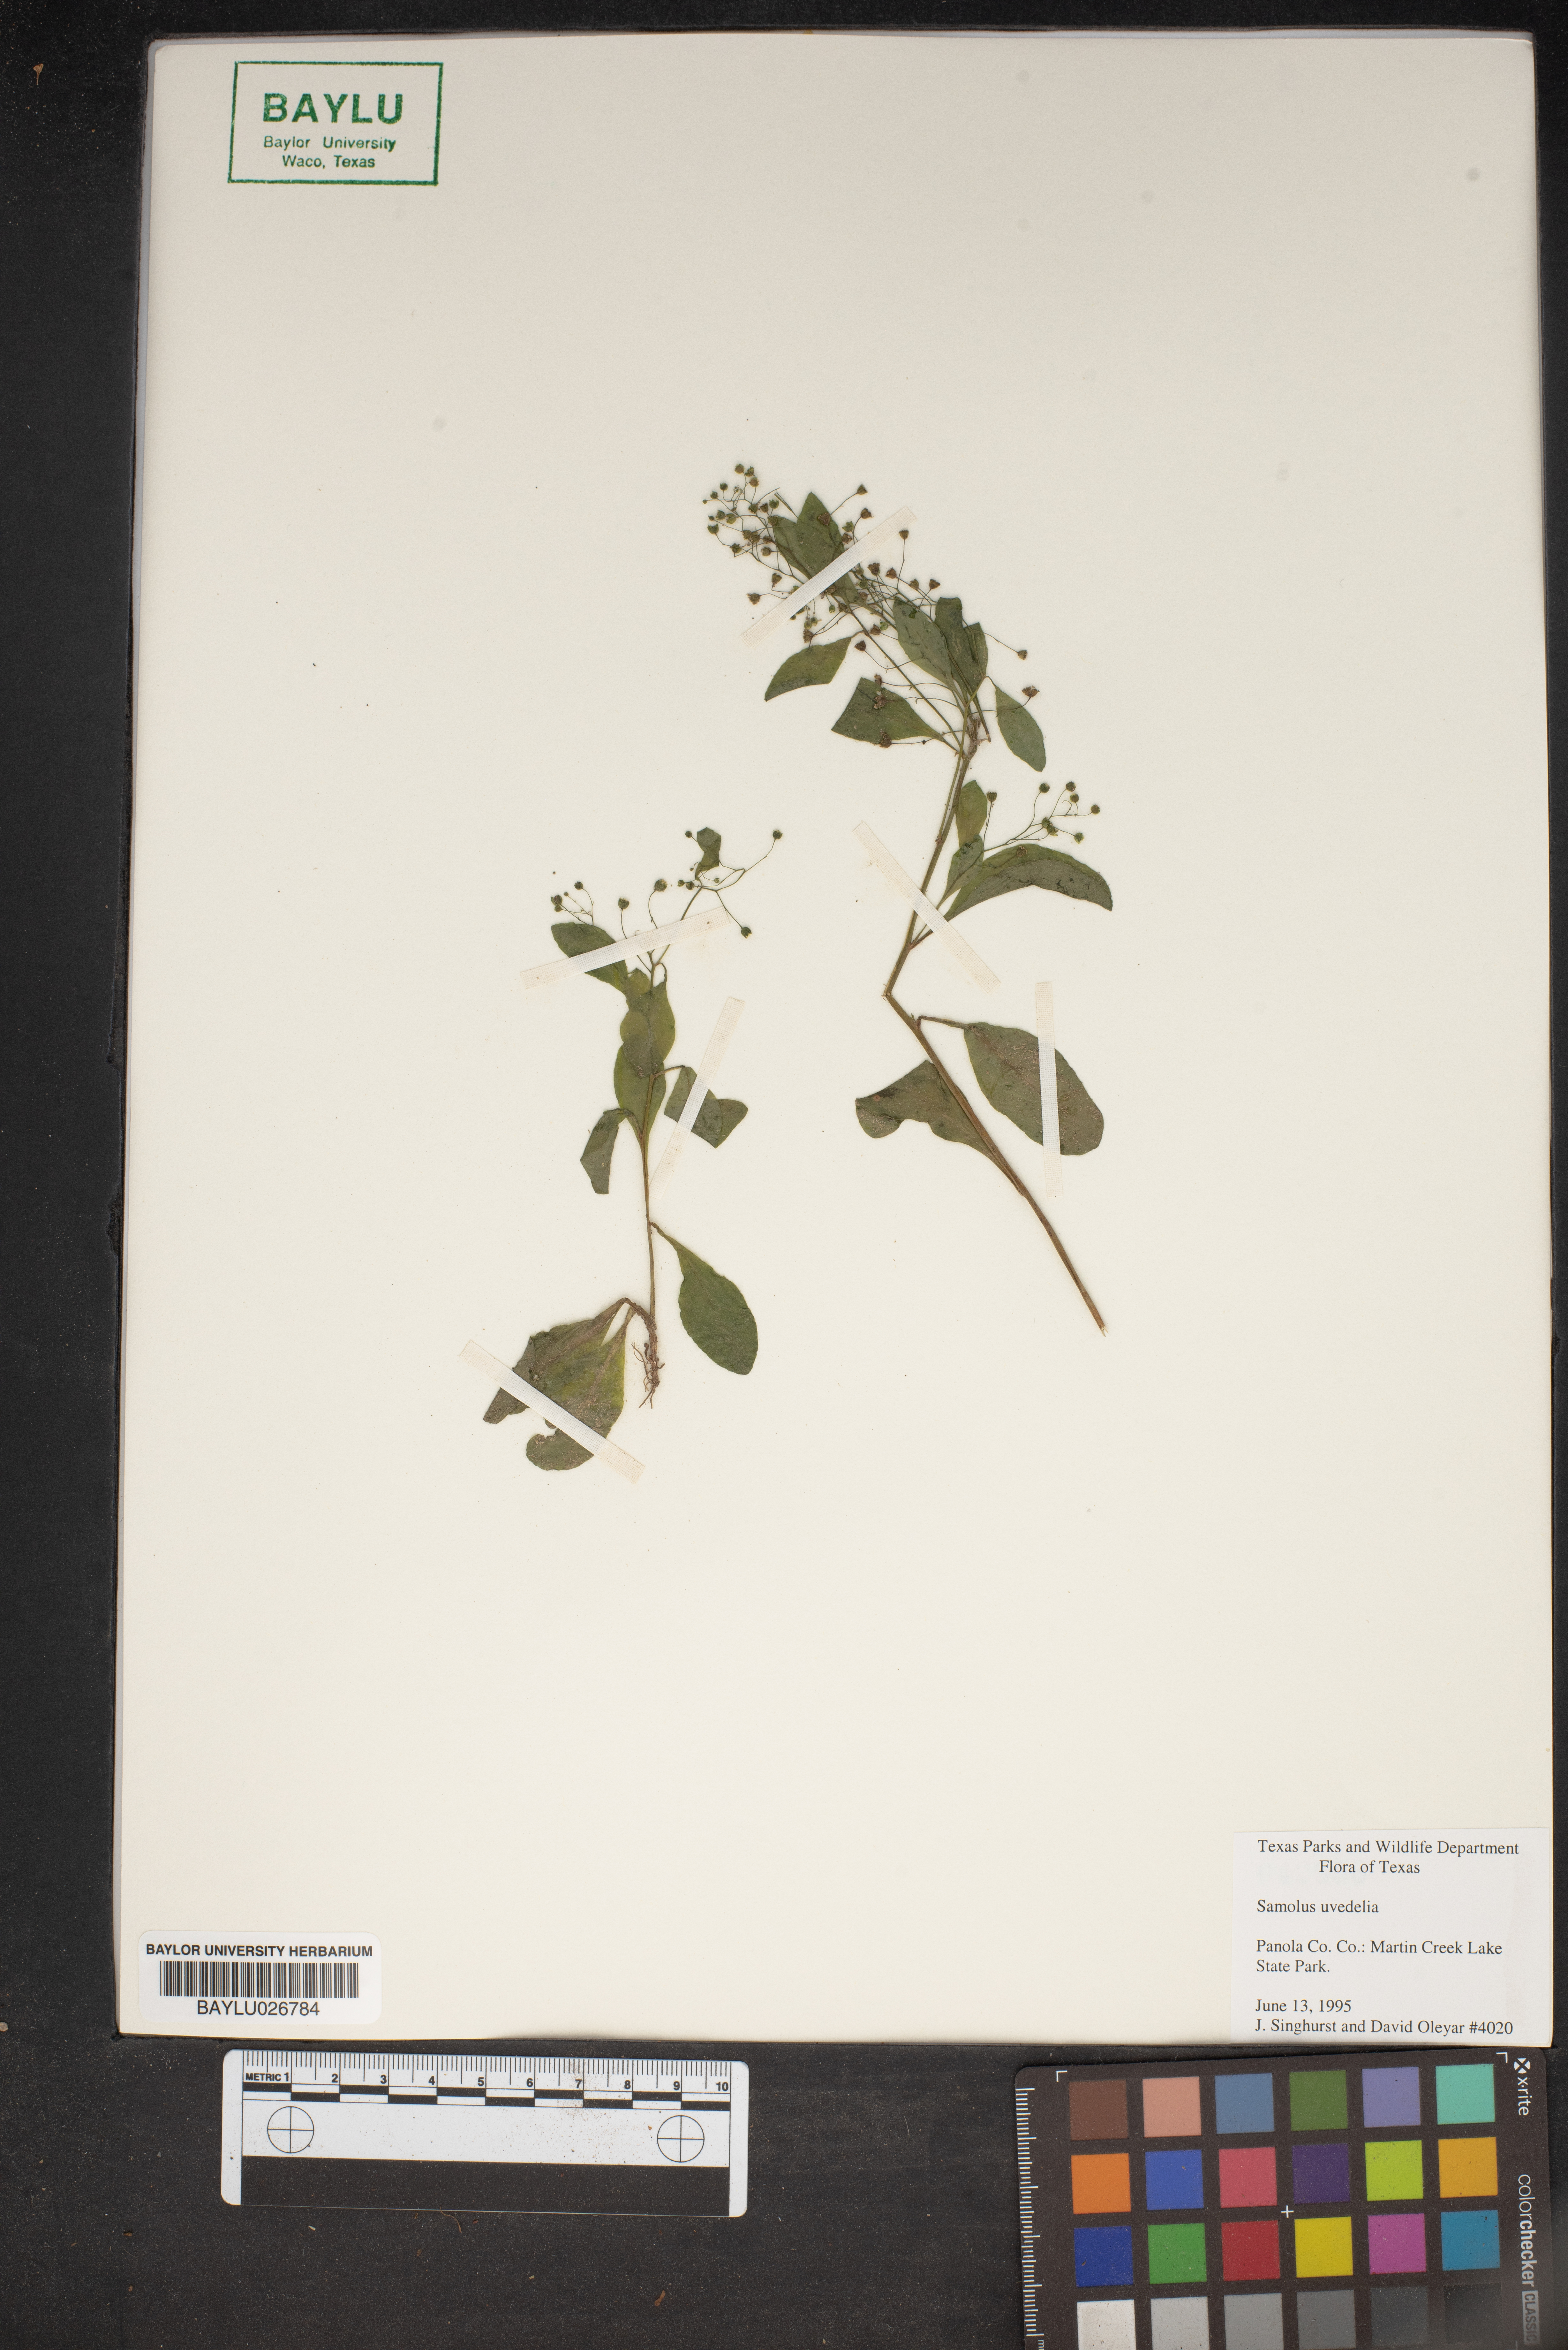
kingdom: Plantae
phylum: Tracheophyta
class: Magnoliopsida
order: Ericales
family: Primulaceae
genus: Samolus
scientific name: Samolus
